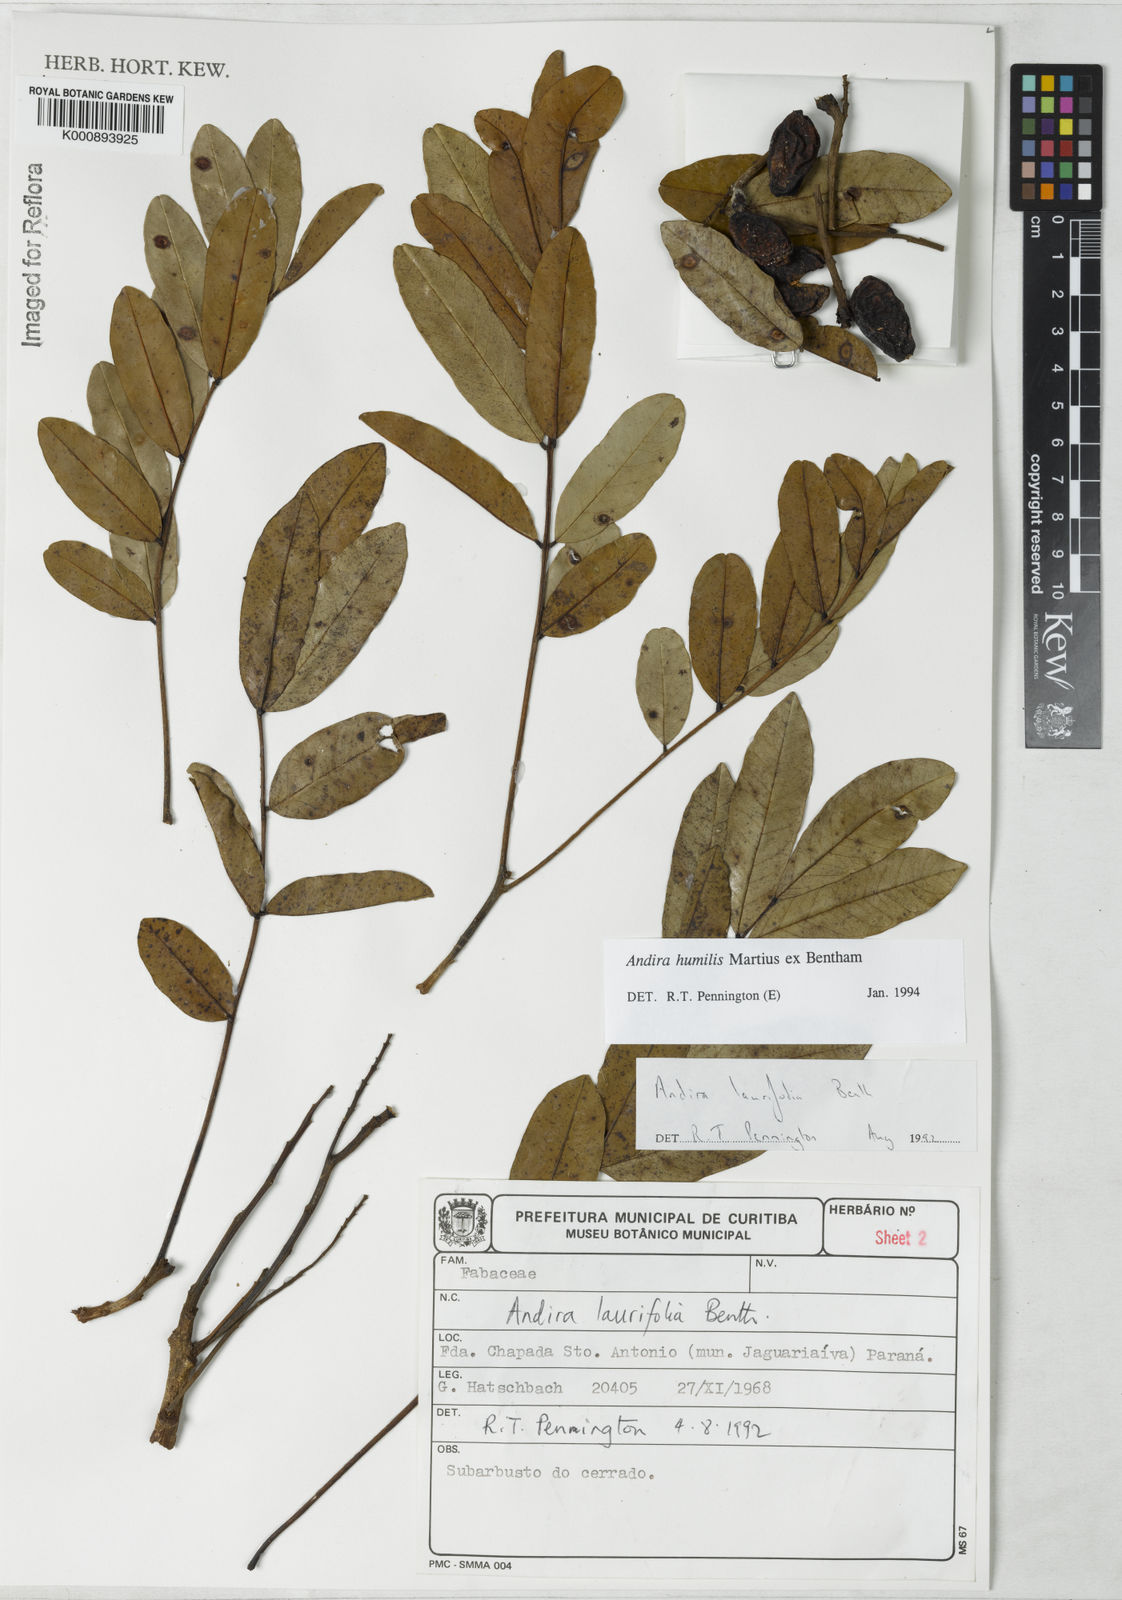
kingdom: Plantae
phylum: Tracheophyta
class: Magnoliopsida
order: Fabales
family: Fabaceae
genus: Andira
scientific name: Andira humilis
